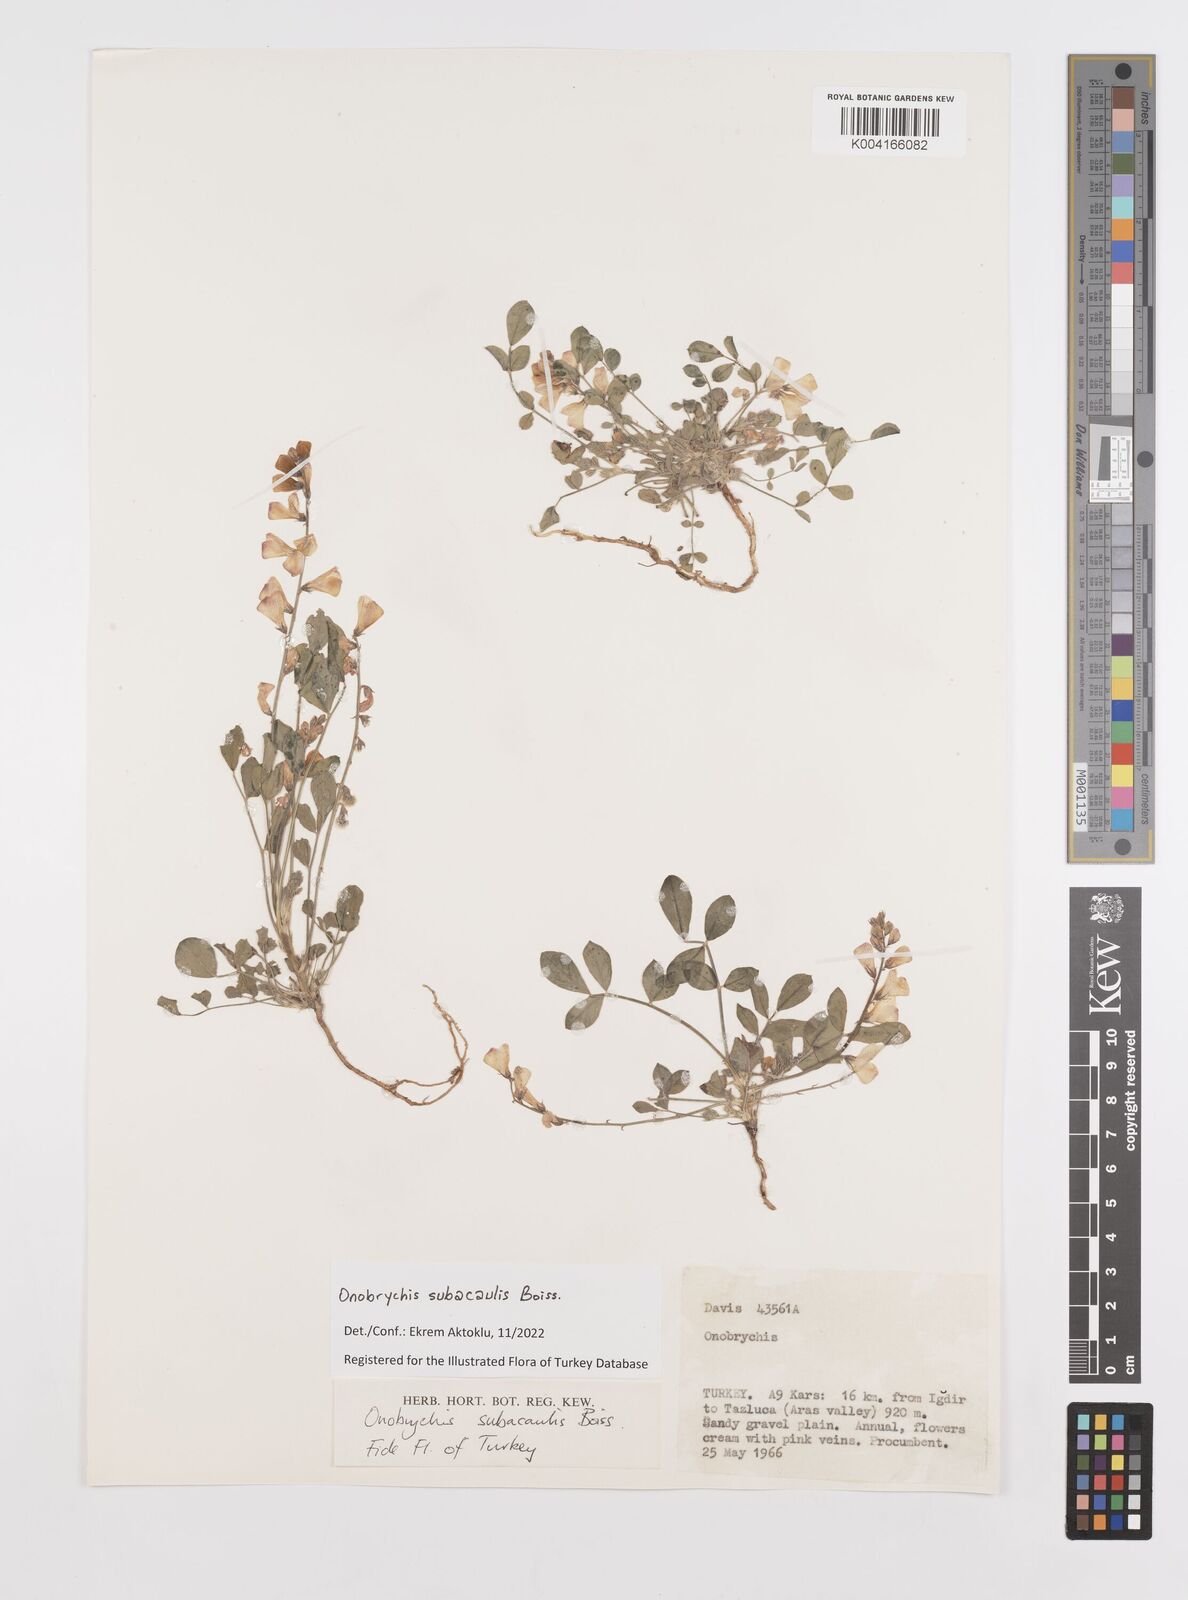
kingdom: Plantae
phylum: Tracheophyta
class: Magnoliopsida
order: Fabales
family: Fabaceae
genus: Onobrychis
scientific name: Onobrychis subacaulis
